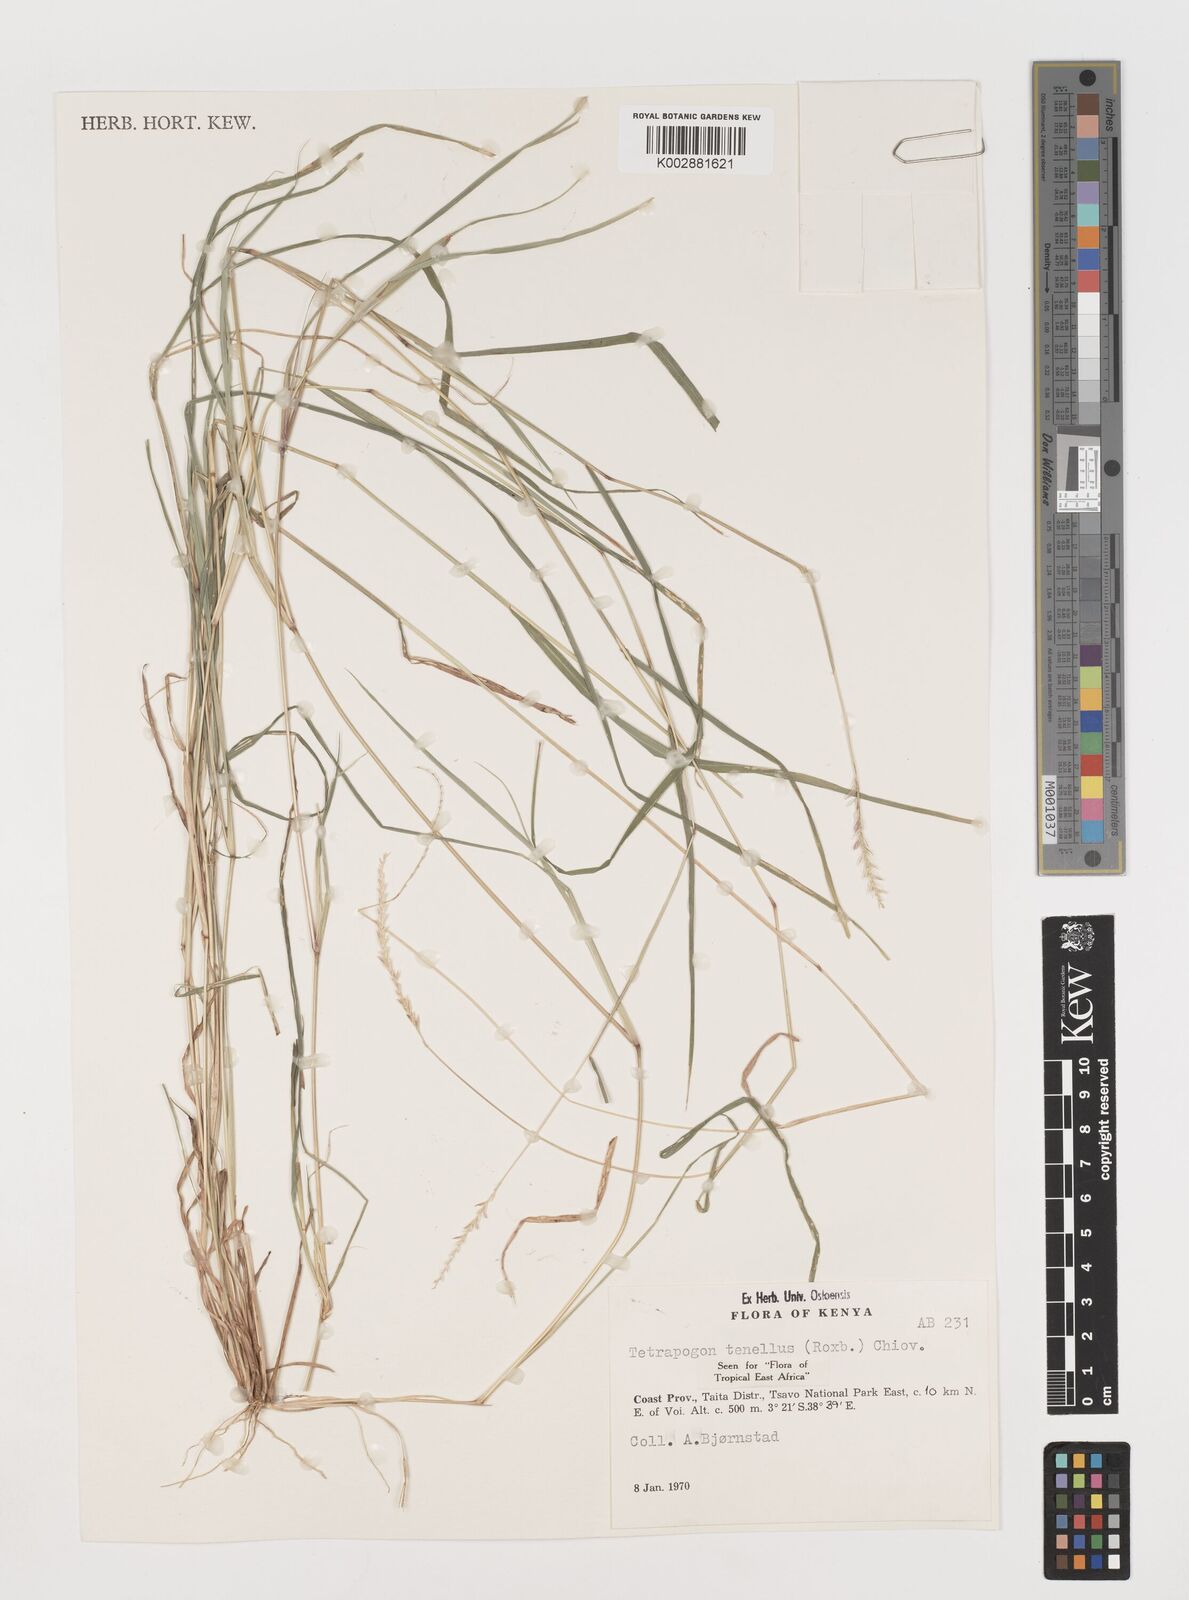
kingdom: Plantae
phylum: Tracheophyta
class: Liliopsida
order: Poales
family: Poaceae
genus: Tetrapogon
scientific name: Tetrapogon tenellus
